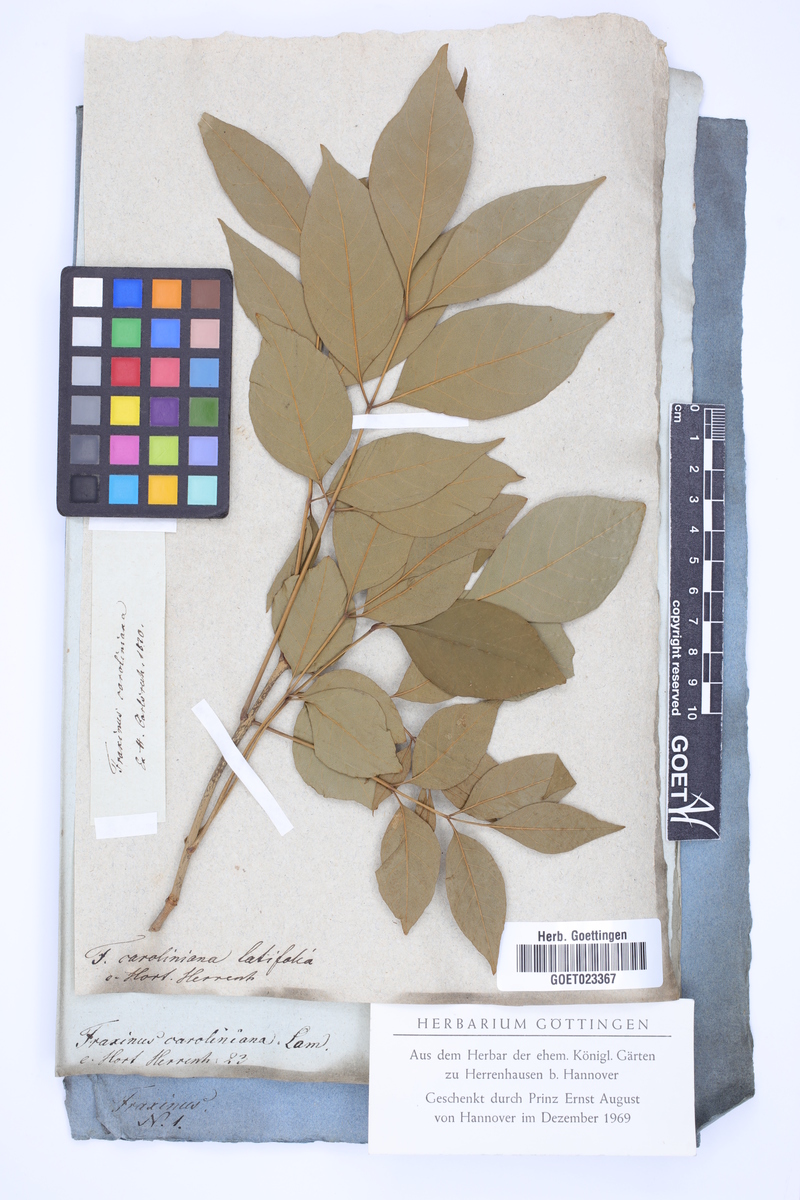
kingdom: Plantae
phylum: Tracheophyta
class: Magnoliopsida
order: Lamiales
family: Oleaceae
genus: Fraxinus
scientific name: Fraxinus caroliniana
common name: Carolina ash
